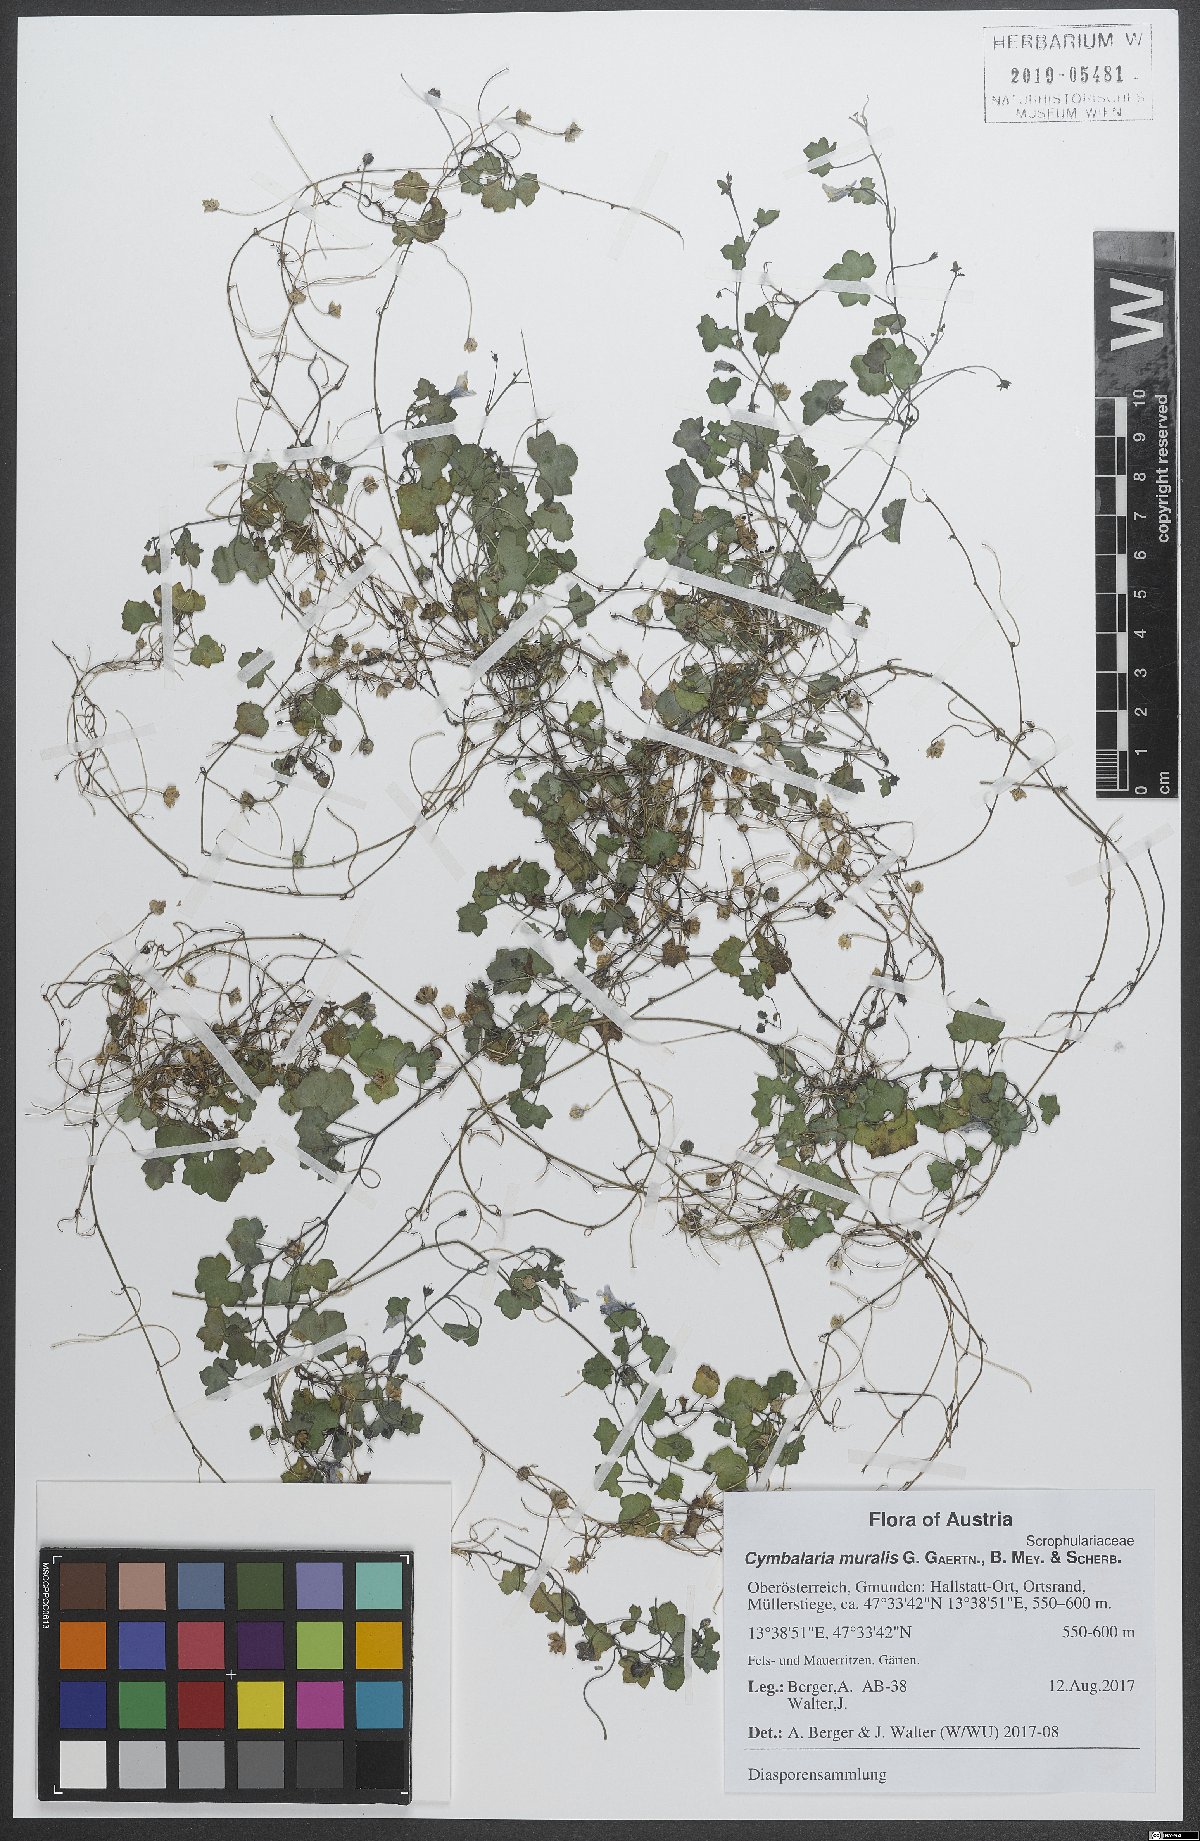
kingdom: Plantae
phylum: Tracheophyta
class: Magnoliopsida
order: Lamiales
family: Plantaginaceae
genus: Cymbalaria
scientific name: Cymbalaria muralis
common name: Ivy-leaved toadflax
